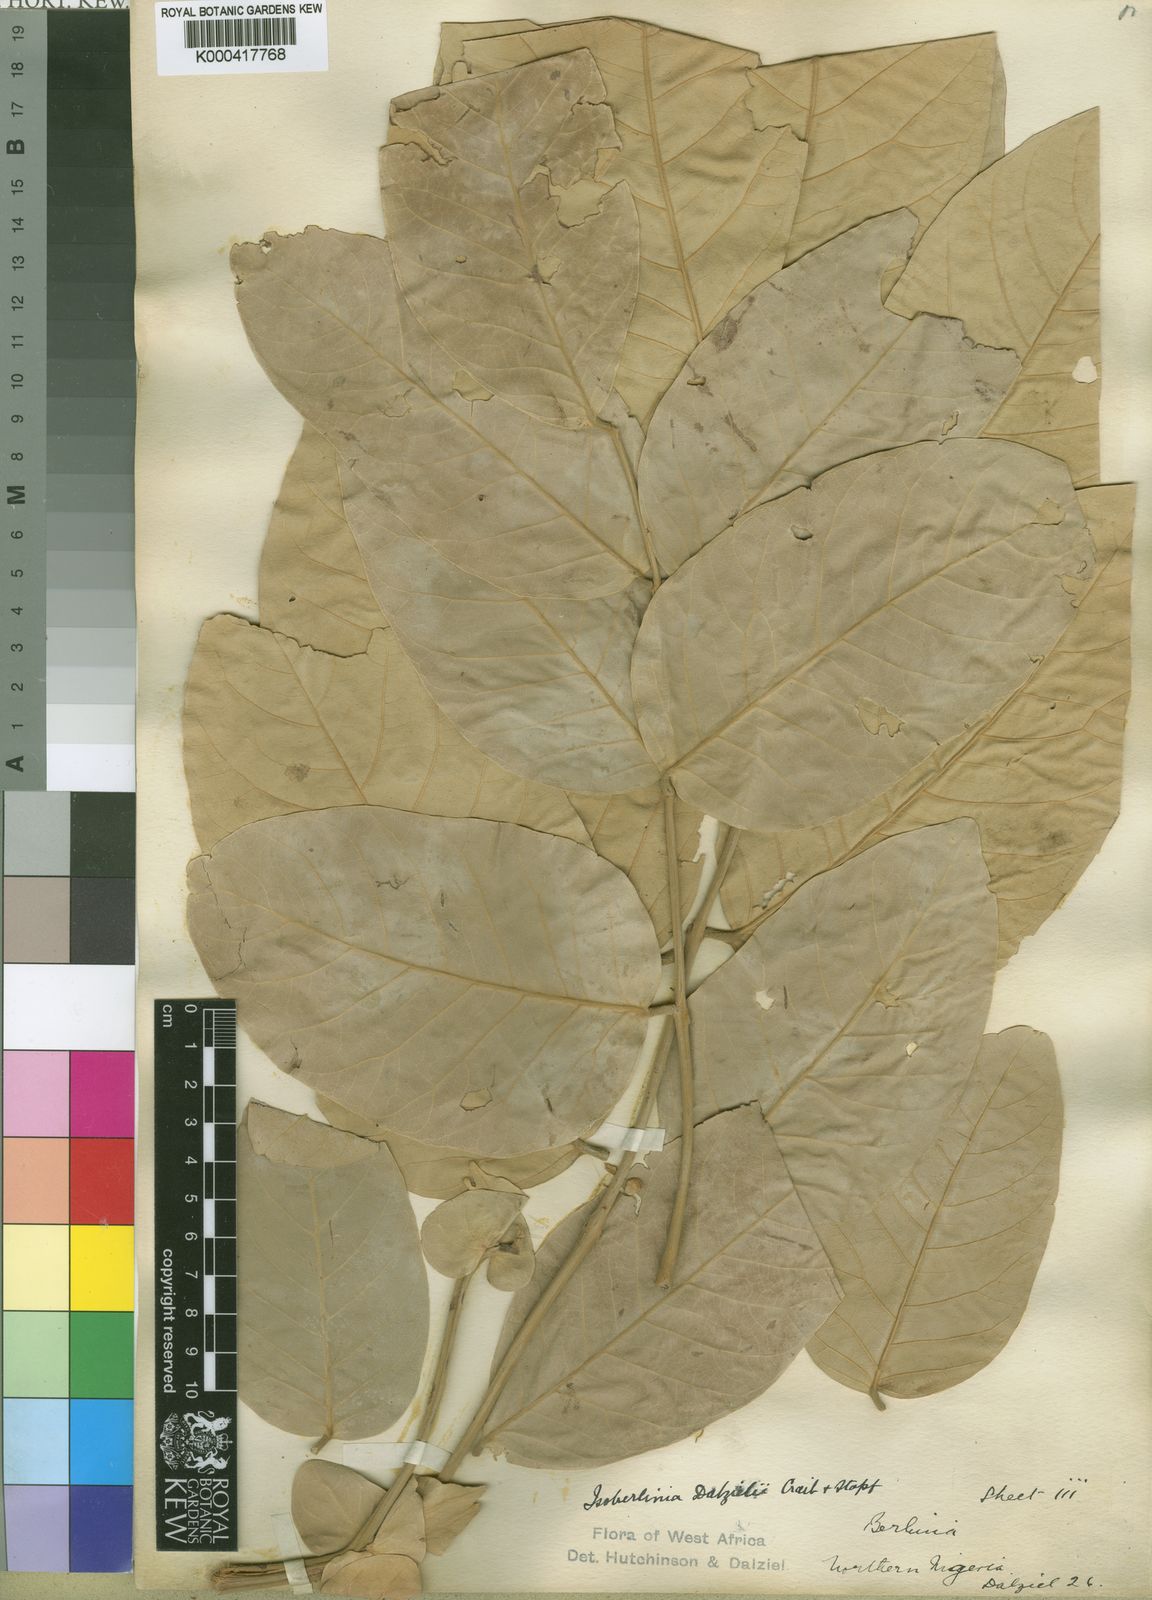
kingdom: Plantae
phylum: Tracheophyta
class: Magnoliopsida
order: Fabales
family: Fabaceae
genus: Isoberlinia
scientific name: Isoberlinia tomentosa
